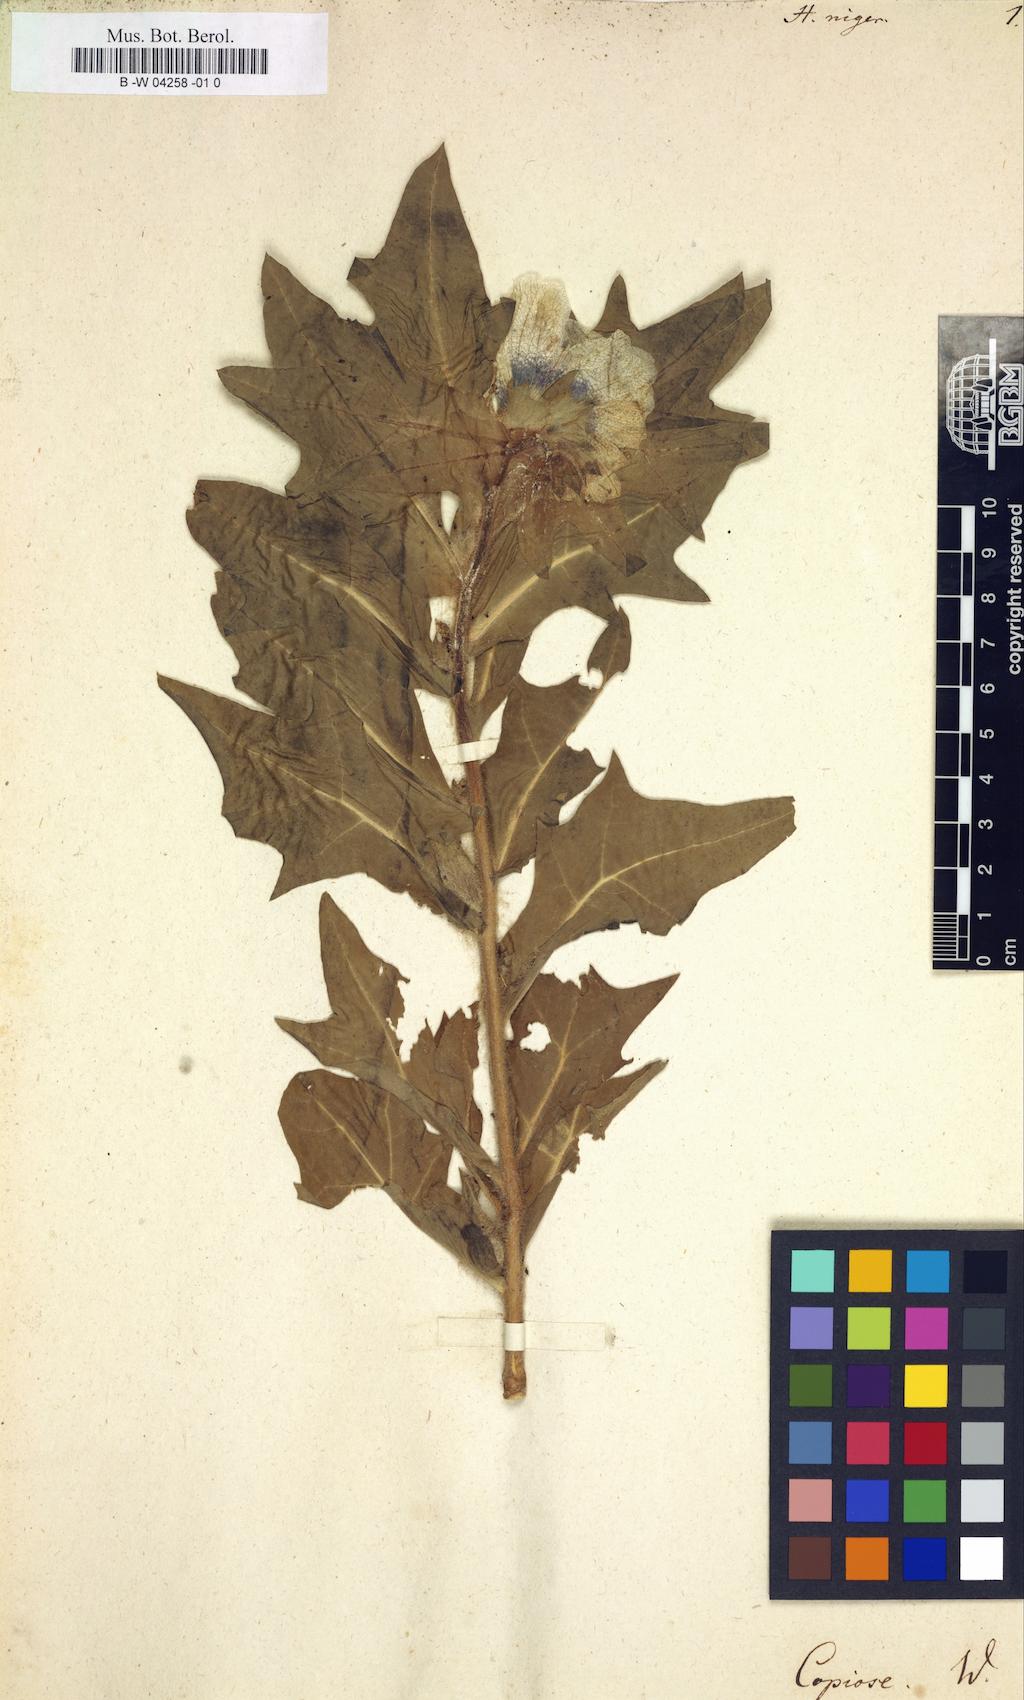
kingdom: Plantae
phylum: Tracheophyta
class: Magnoliopsida
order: Solanales
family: Solanaceae
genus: Hyoscyamus
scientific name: Hyoscyamus niger
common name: Henbane
